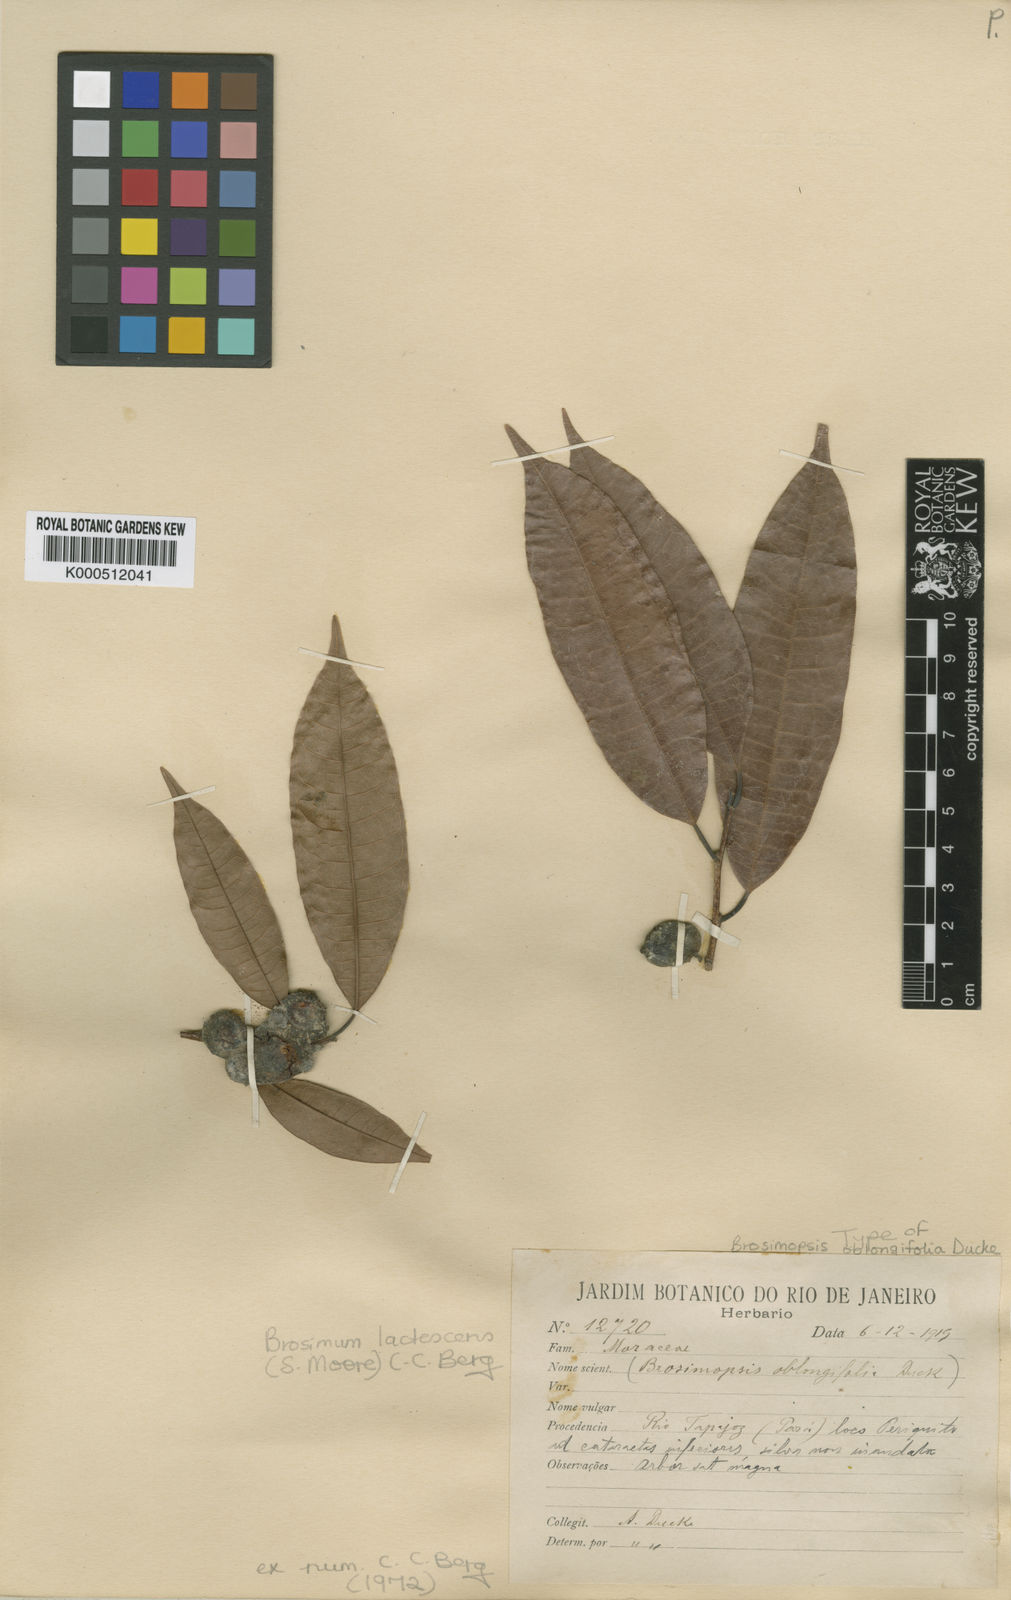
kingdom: Plantae
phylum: Tracheophyta
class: Magnoliopsida
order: Rosales
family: Moraceae
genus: Brosimum
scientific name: Brosimum lactescens
